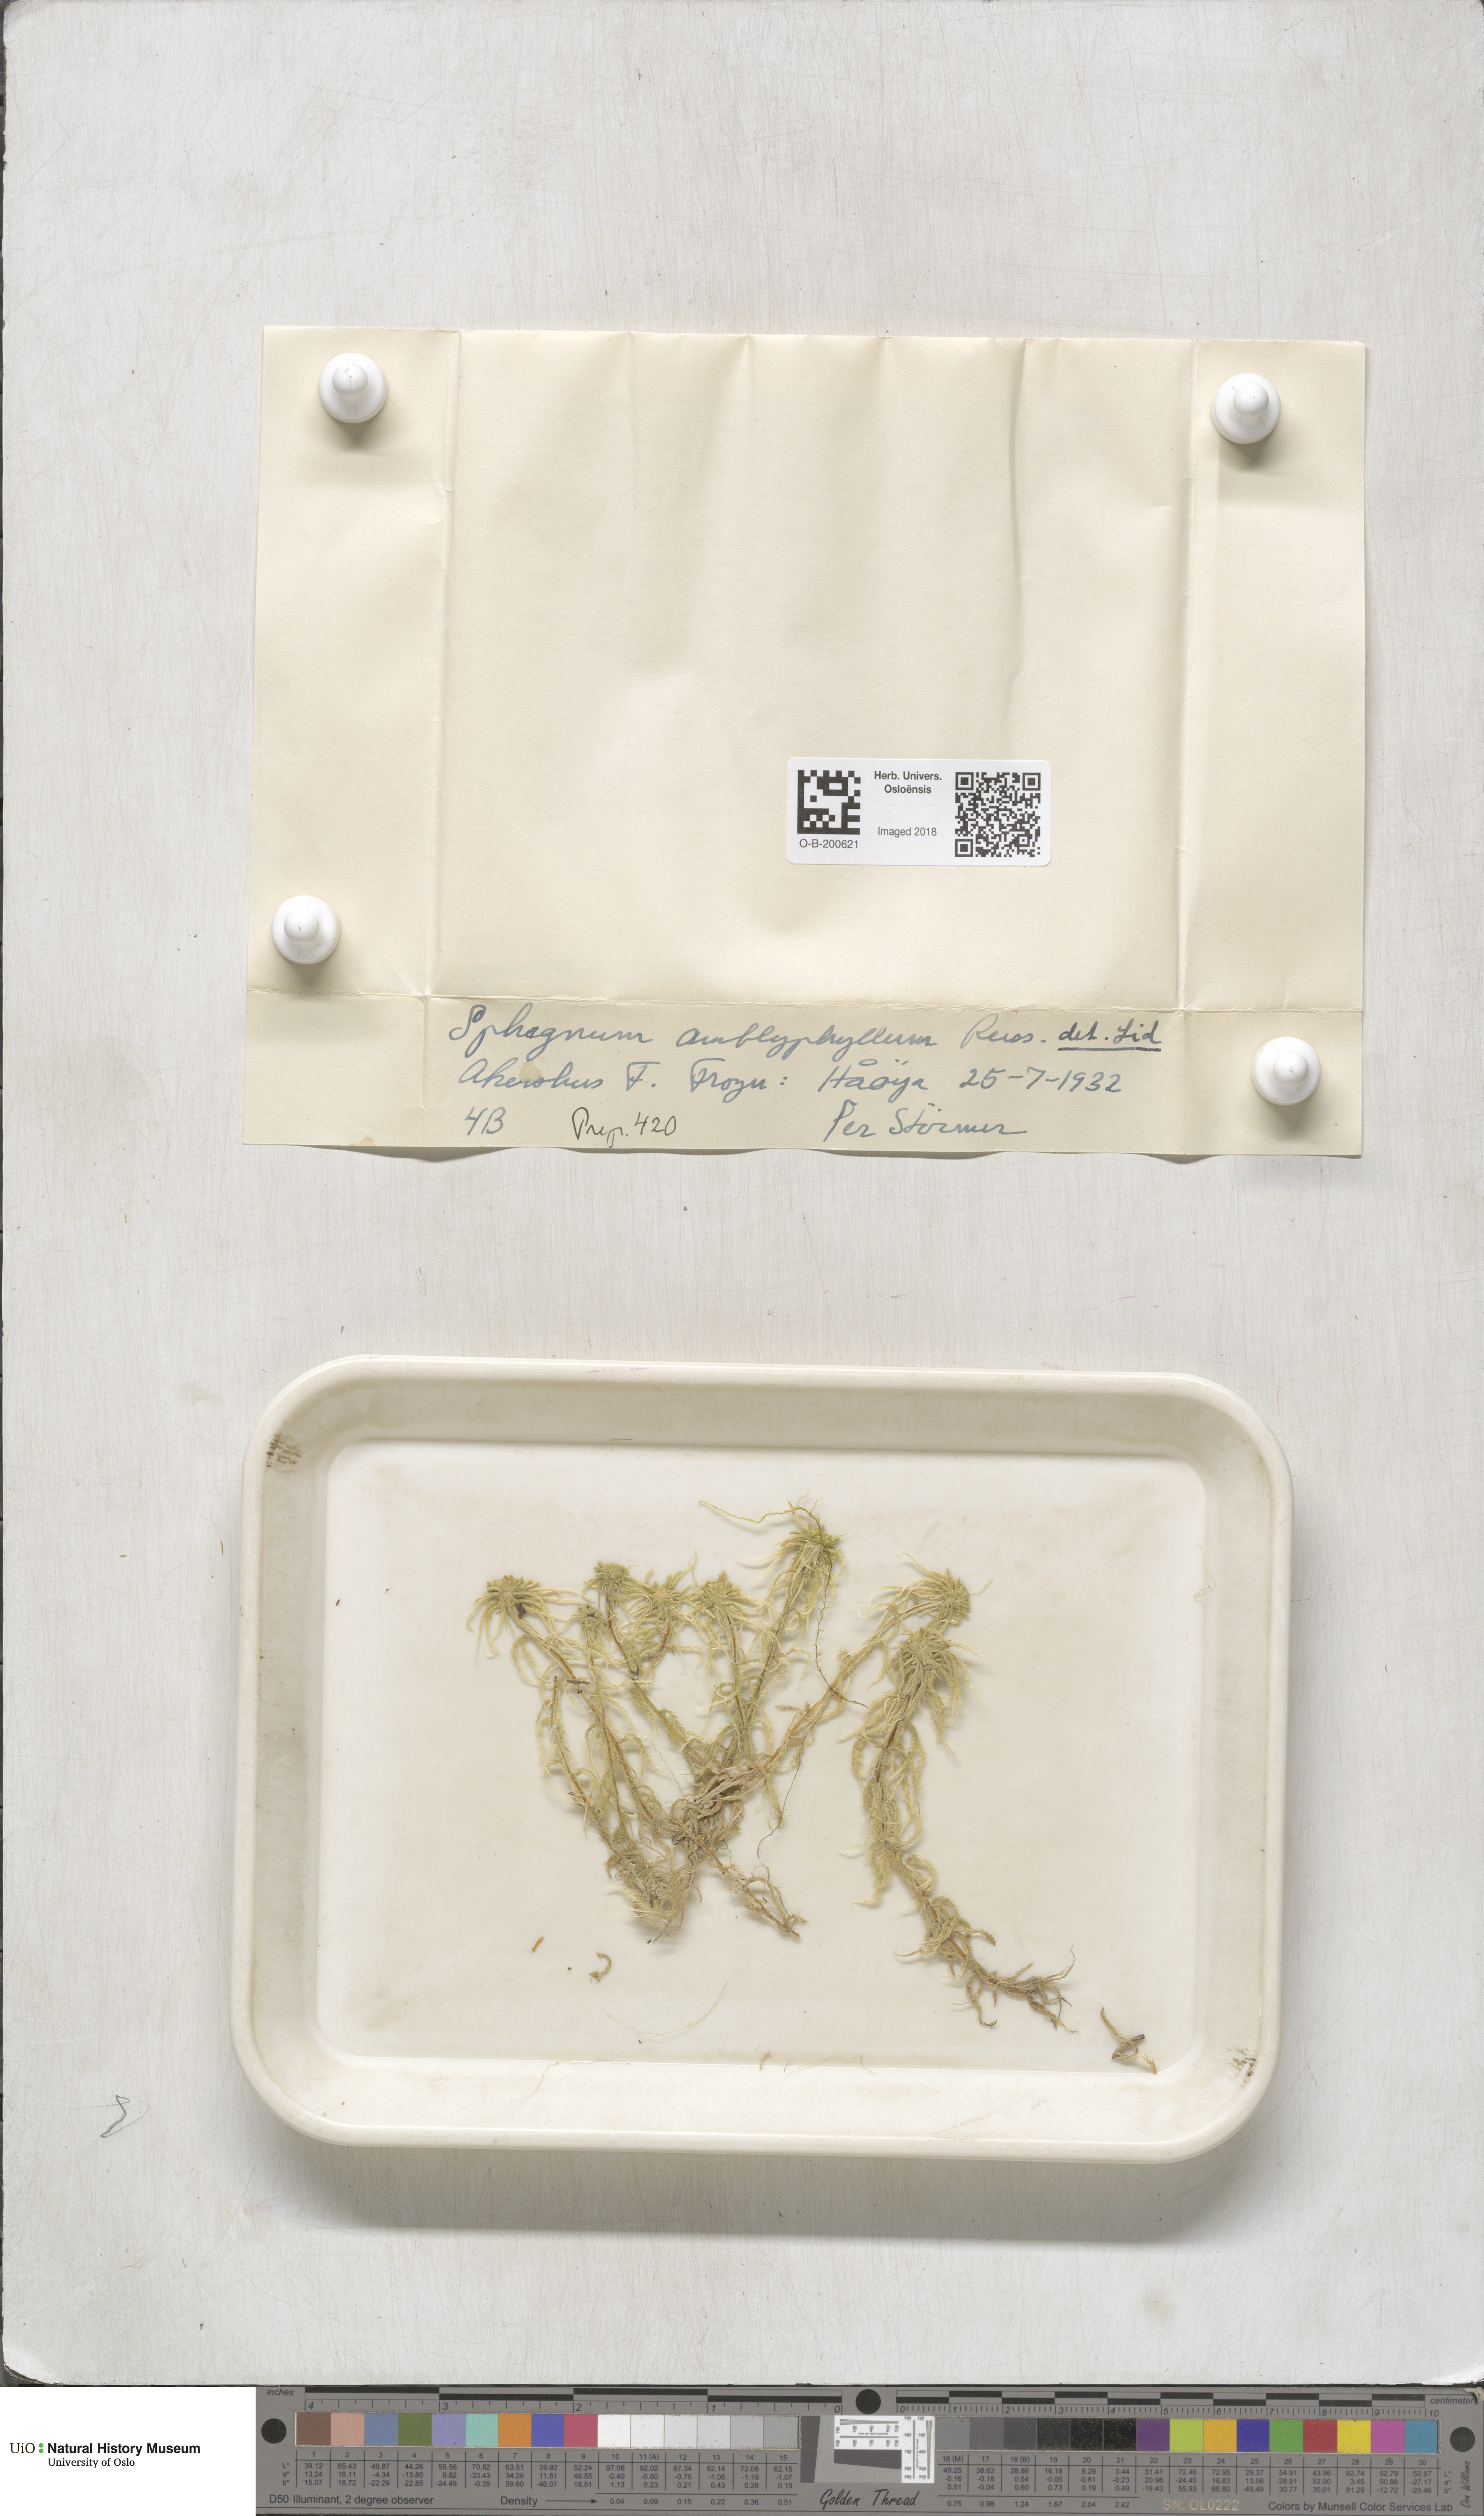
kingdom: Plantae
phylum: Bryophyta
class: Sphagnopsida
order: Sphagnales
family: Sphagnaceae
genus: Sphagnum
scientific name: Sphagnum flexuosum
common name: Flexible peat moss
